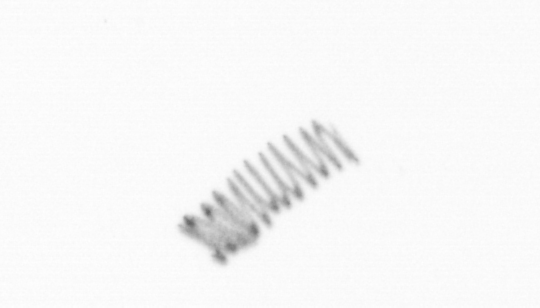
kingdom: Chromista
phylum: Ochrophyta
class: Bacillariophyceae
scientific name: Bacillariophyceae
